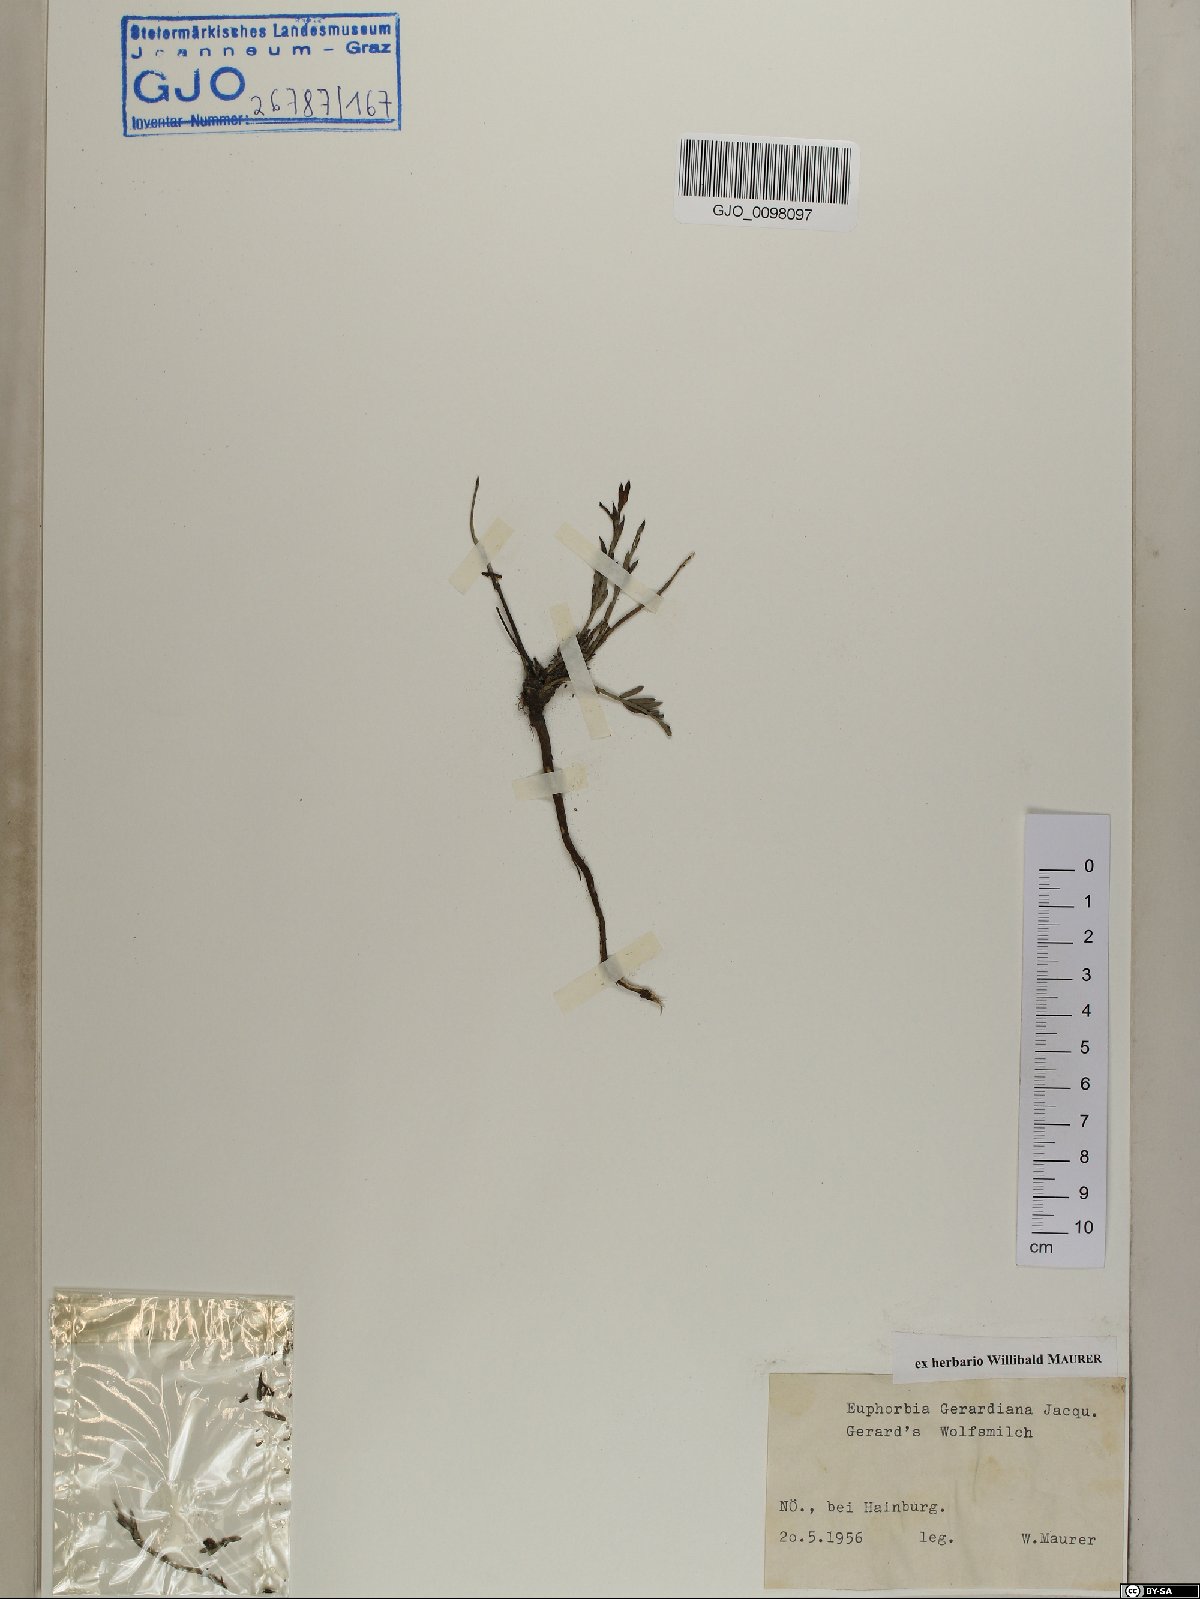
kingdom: Plantae
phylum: Tracheophyta
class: Magnoliopsida
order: Malpighiales
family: Euphorbiaceae
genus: Euphorbia
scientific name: Euphorbia seguieriana
